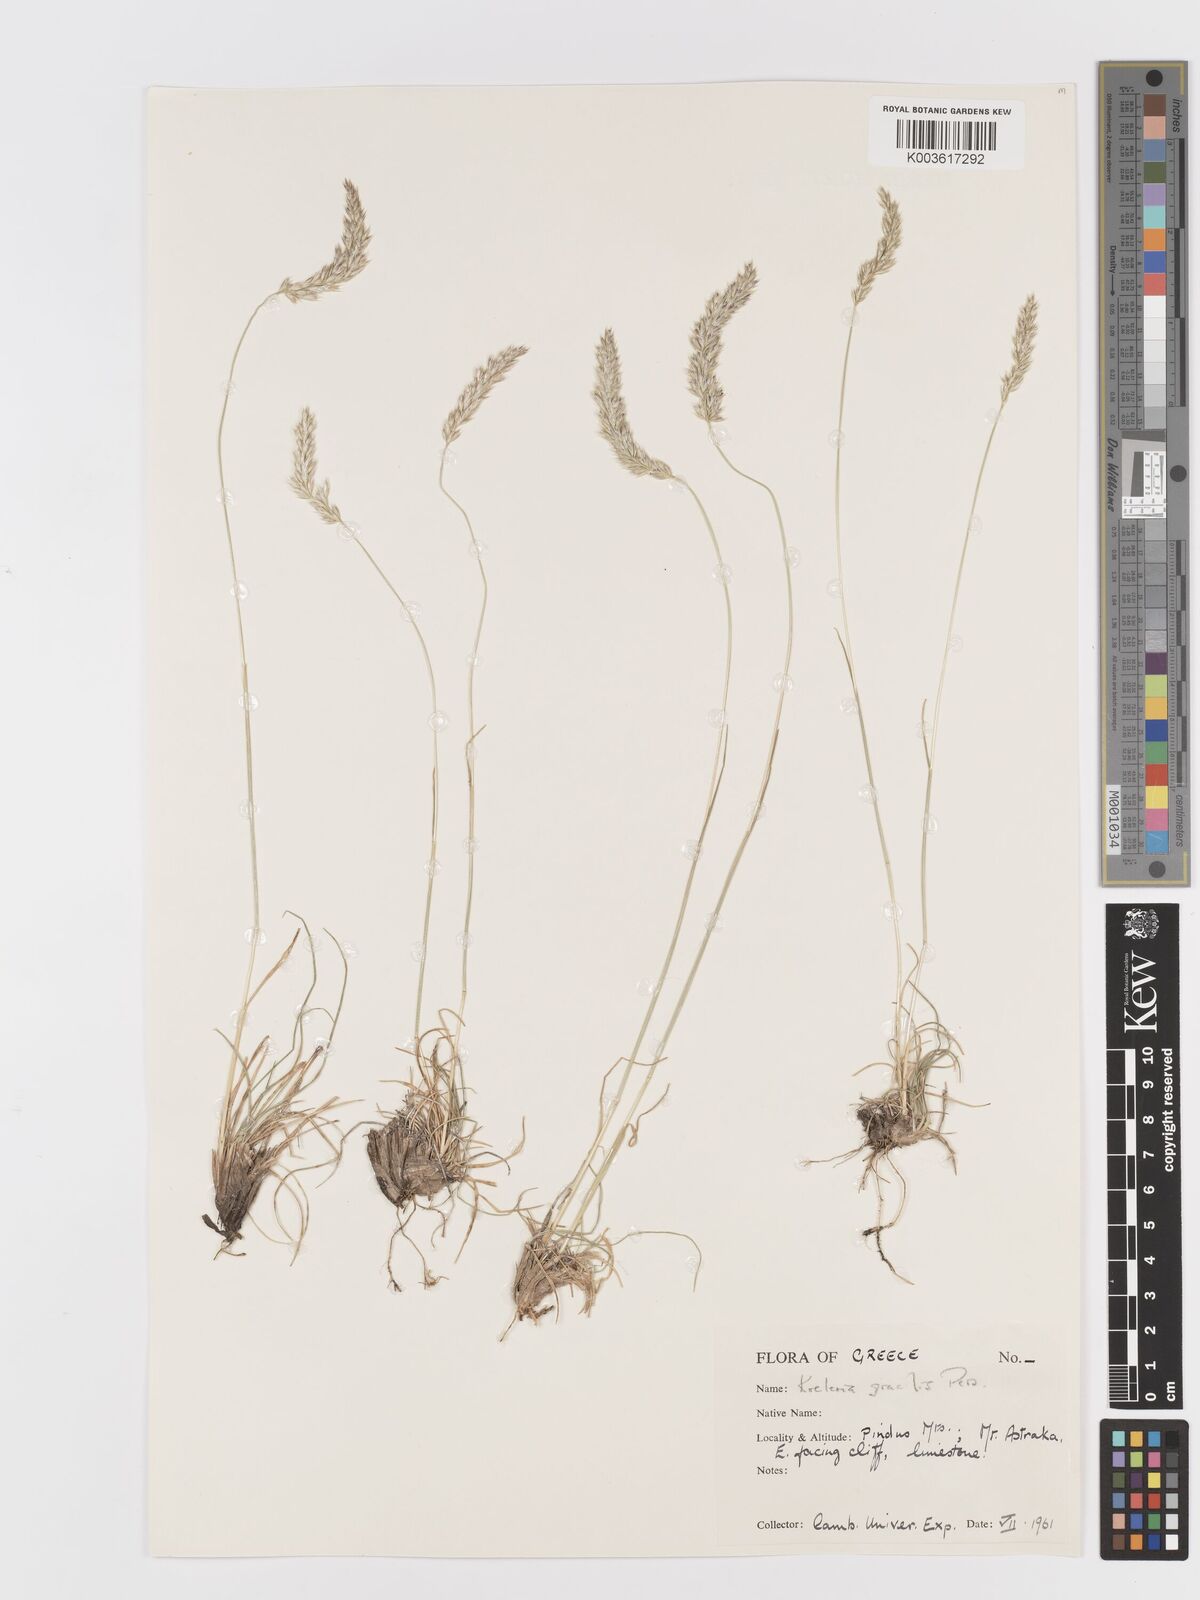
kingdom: Plantae
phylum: Tracheophyta
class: Liliopsida
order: Poales
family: Poaceae
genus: Koeleria
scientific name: Koeleria macrantha
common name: Crested hair-grass
